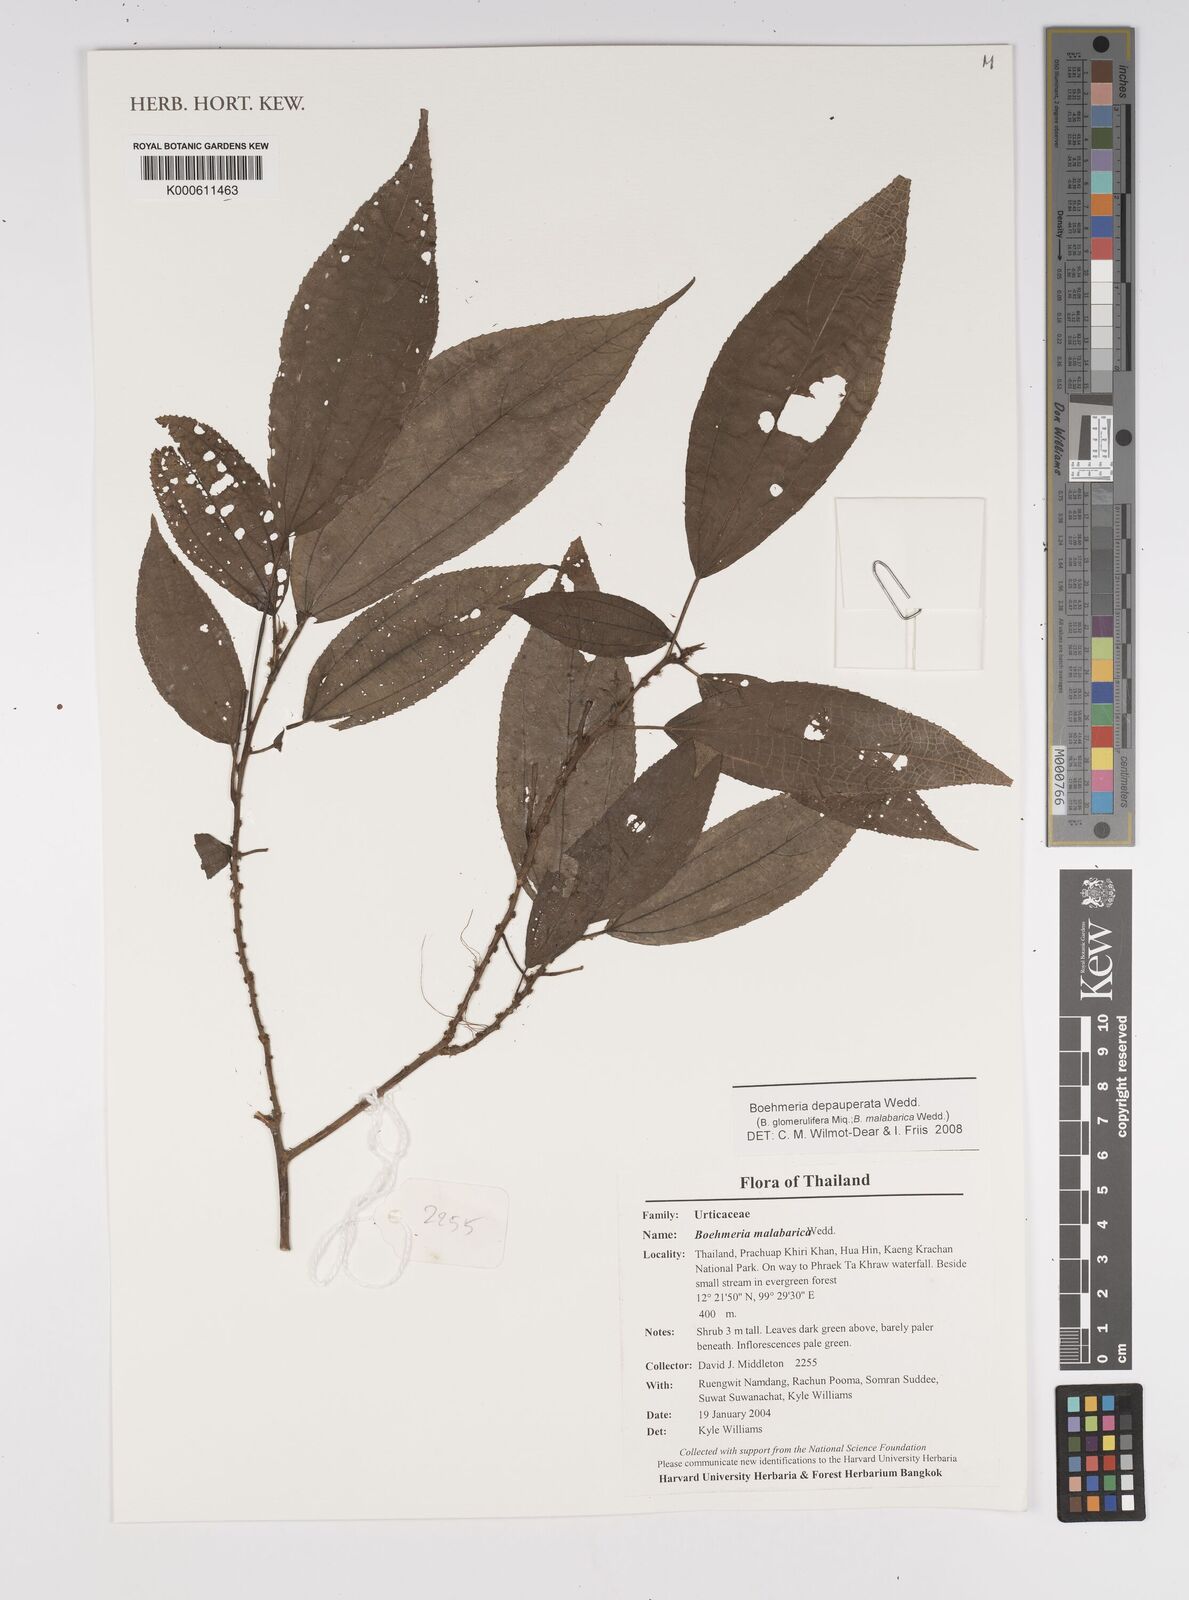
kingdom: Plantae
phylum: Tracheophyta
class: Magnoliopsida
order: Rosales
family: Urticaceae
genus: Boehmeria
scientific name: Boehmeria depauperata
